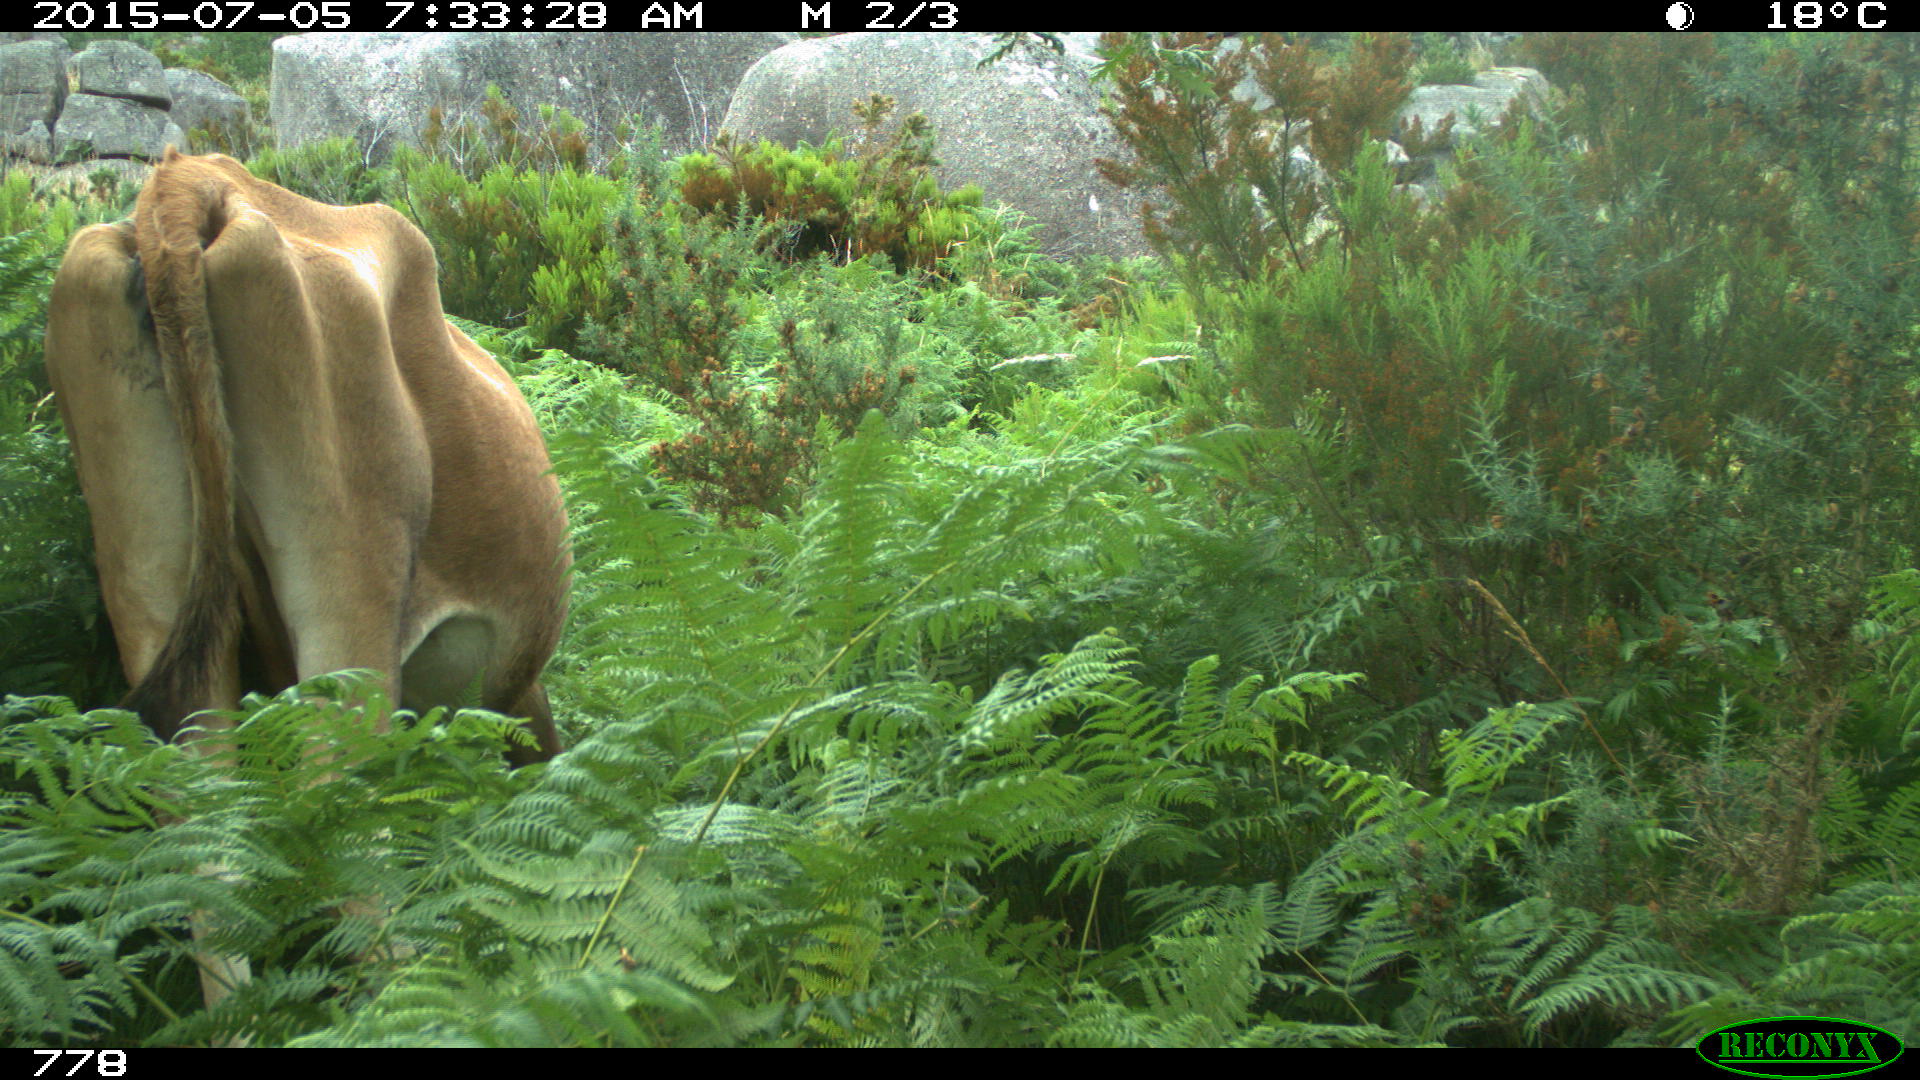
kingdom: Animalia
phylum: Chordata
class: Mammalia
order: Artiodactyla
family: Bovidae
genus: Bos
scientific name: Bos taurus
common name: Domesticated cattle
